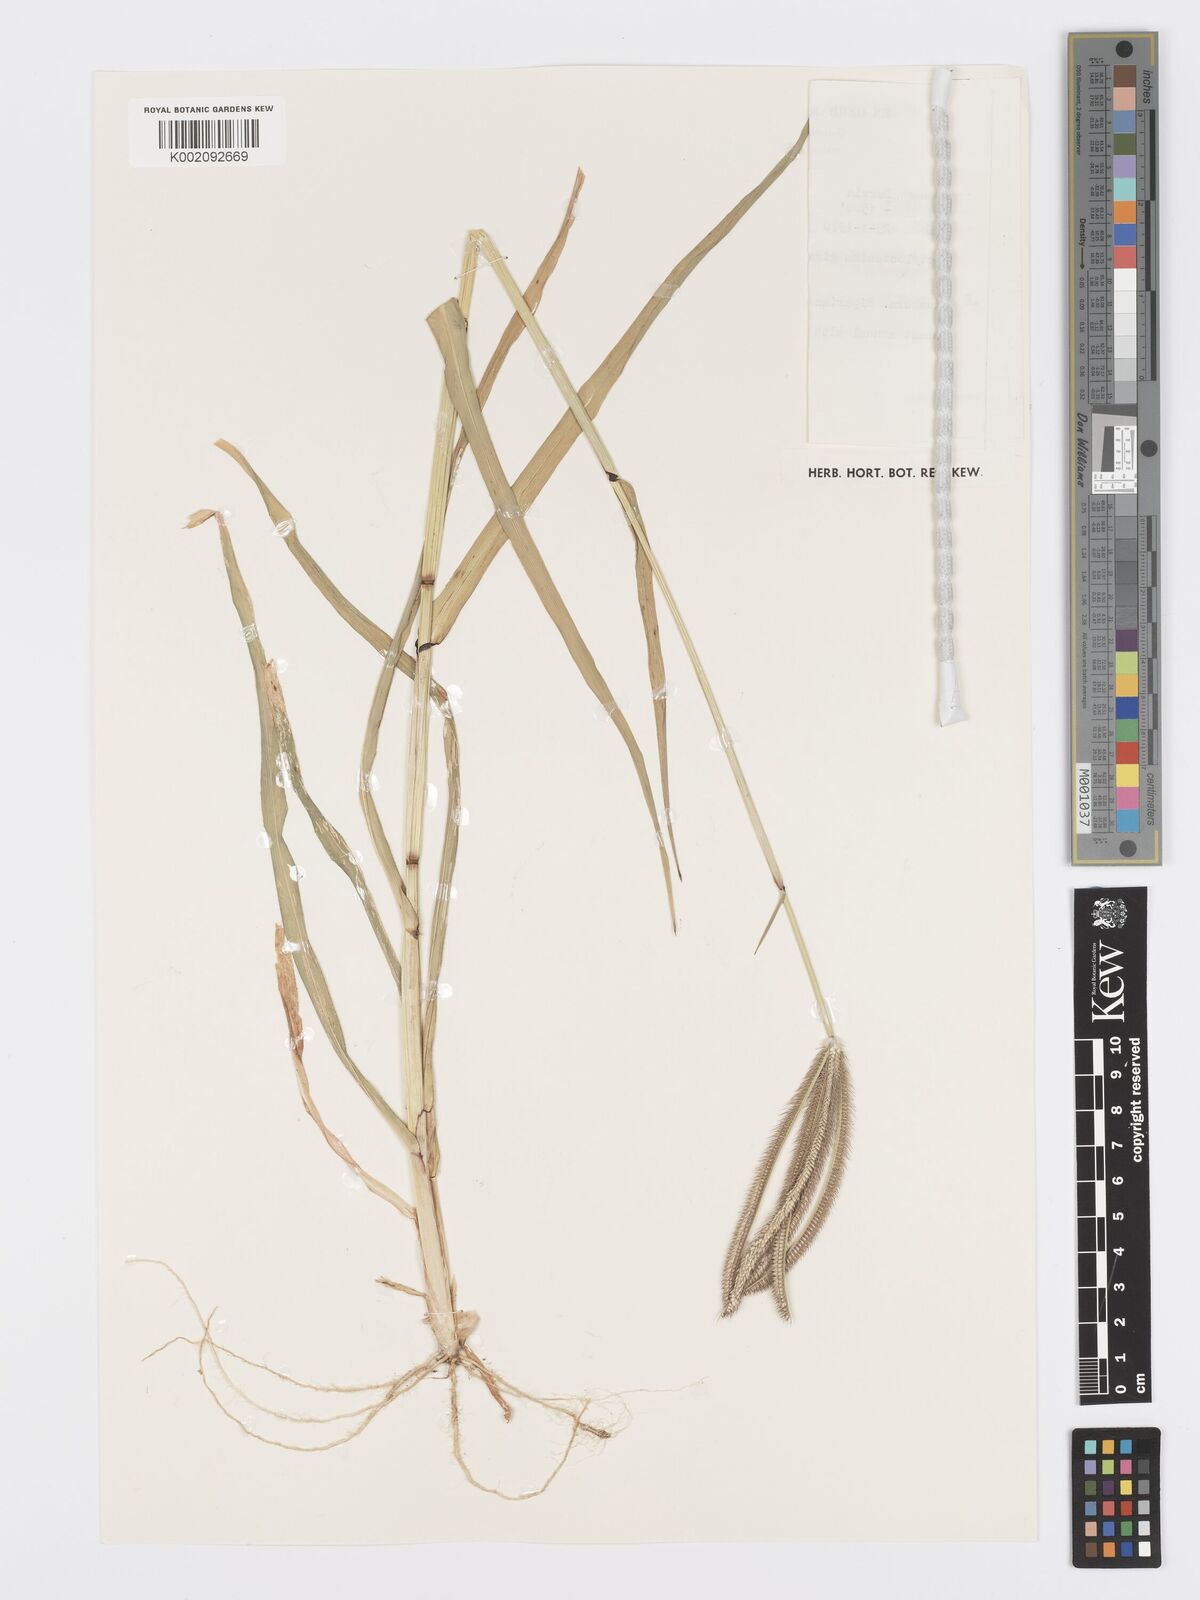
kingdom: Plantae
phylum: Tracheophyta
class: Liliopsida
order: Poales
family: Poaceae
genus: Dactyloctenium
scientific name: Dactyloctenium giganteum
